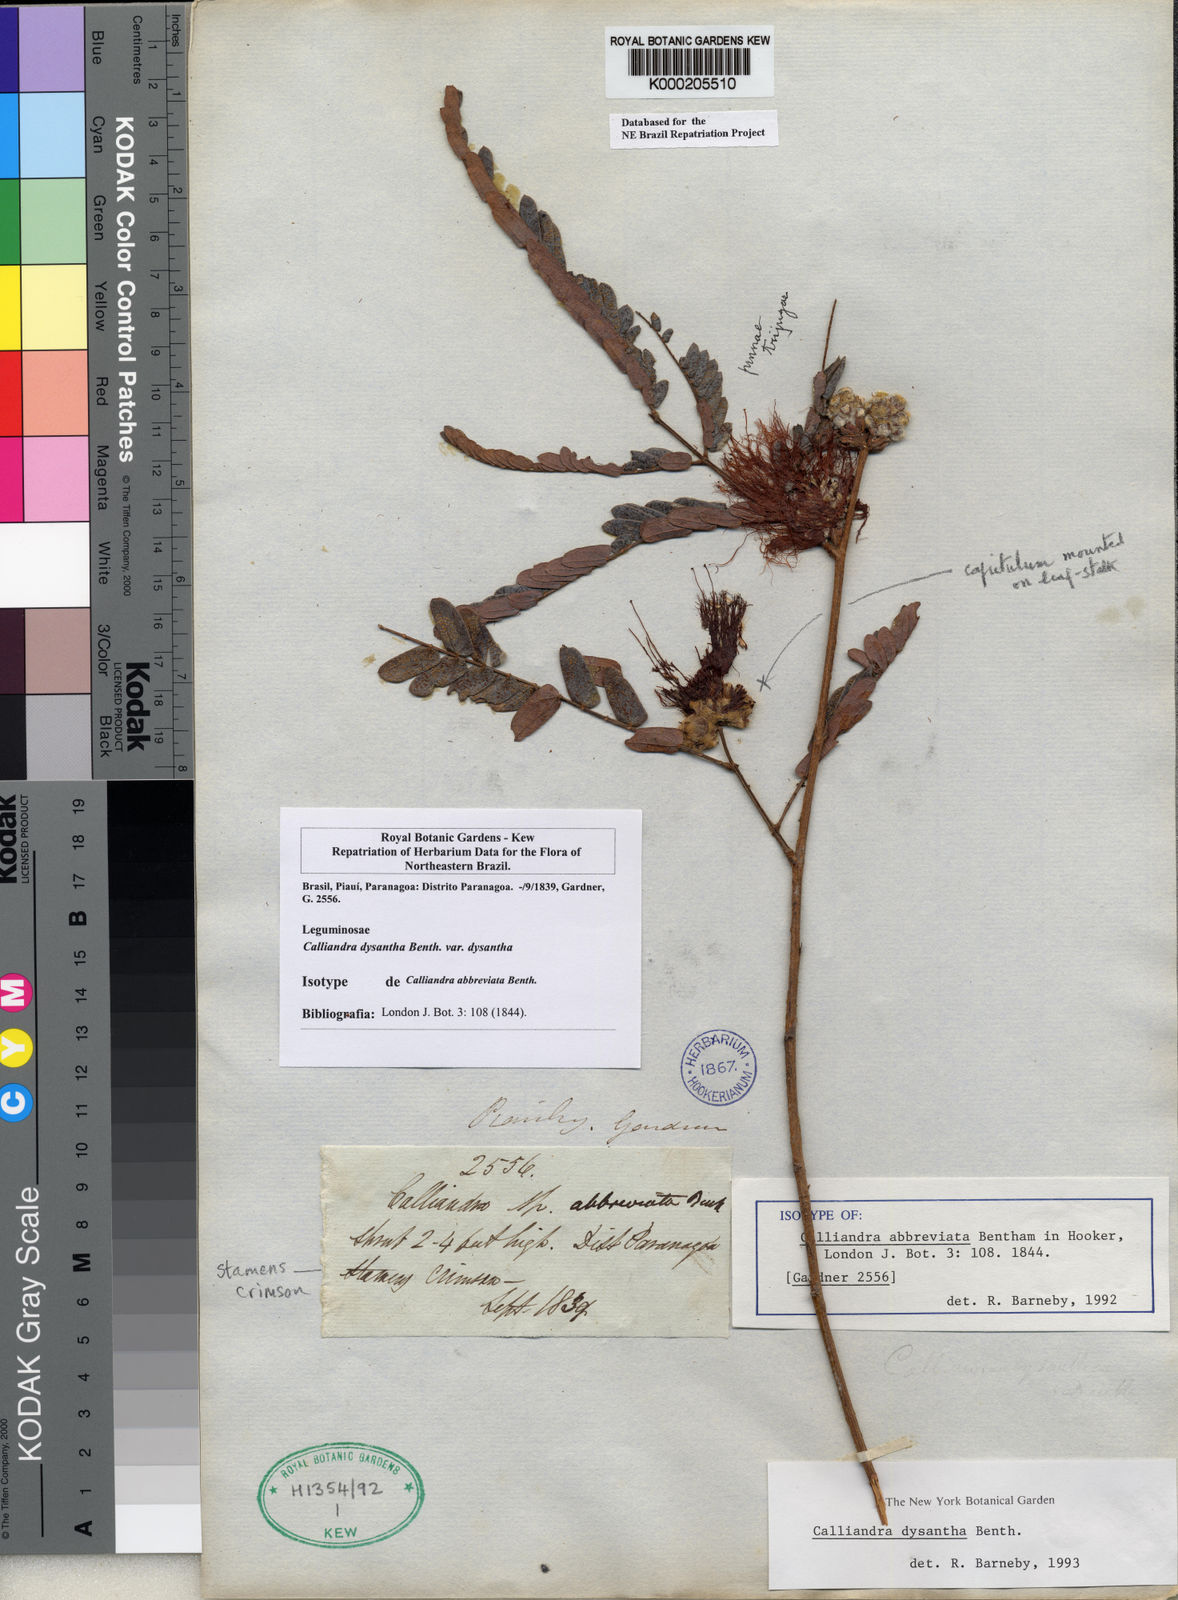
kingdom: Plantae
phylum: Tracheophyta
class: Magnoliopsida
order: Fabales
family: Fabaceae
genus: Calliandra
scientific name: Calliandra dysantha
